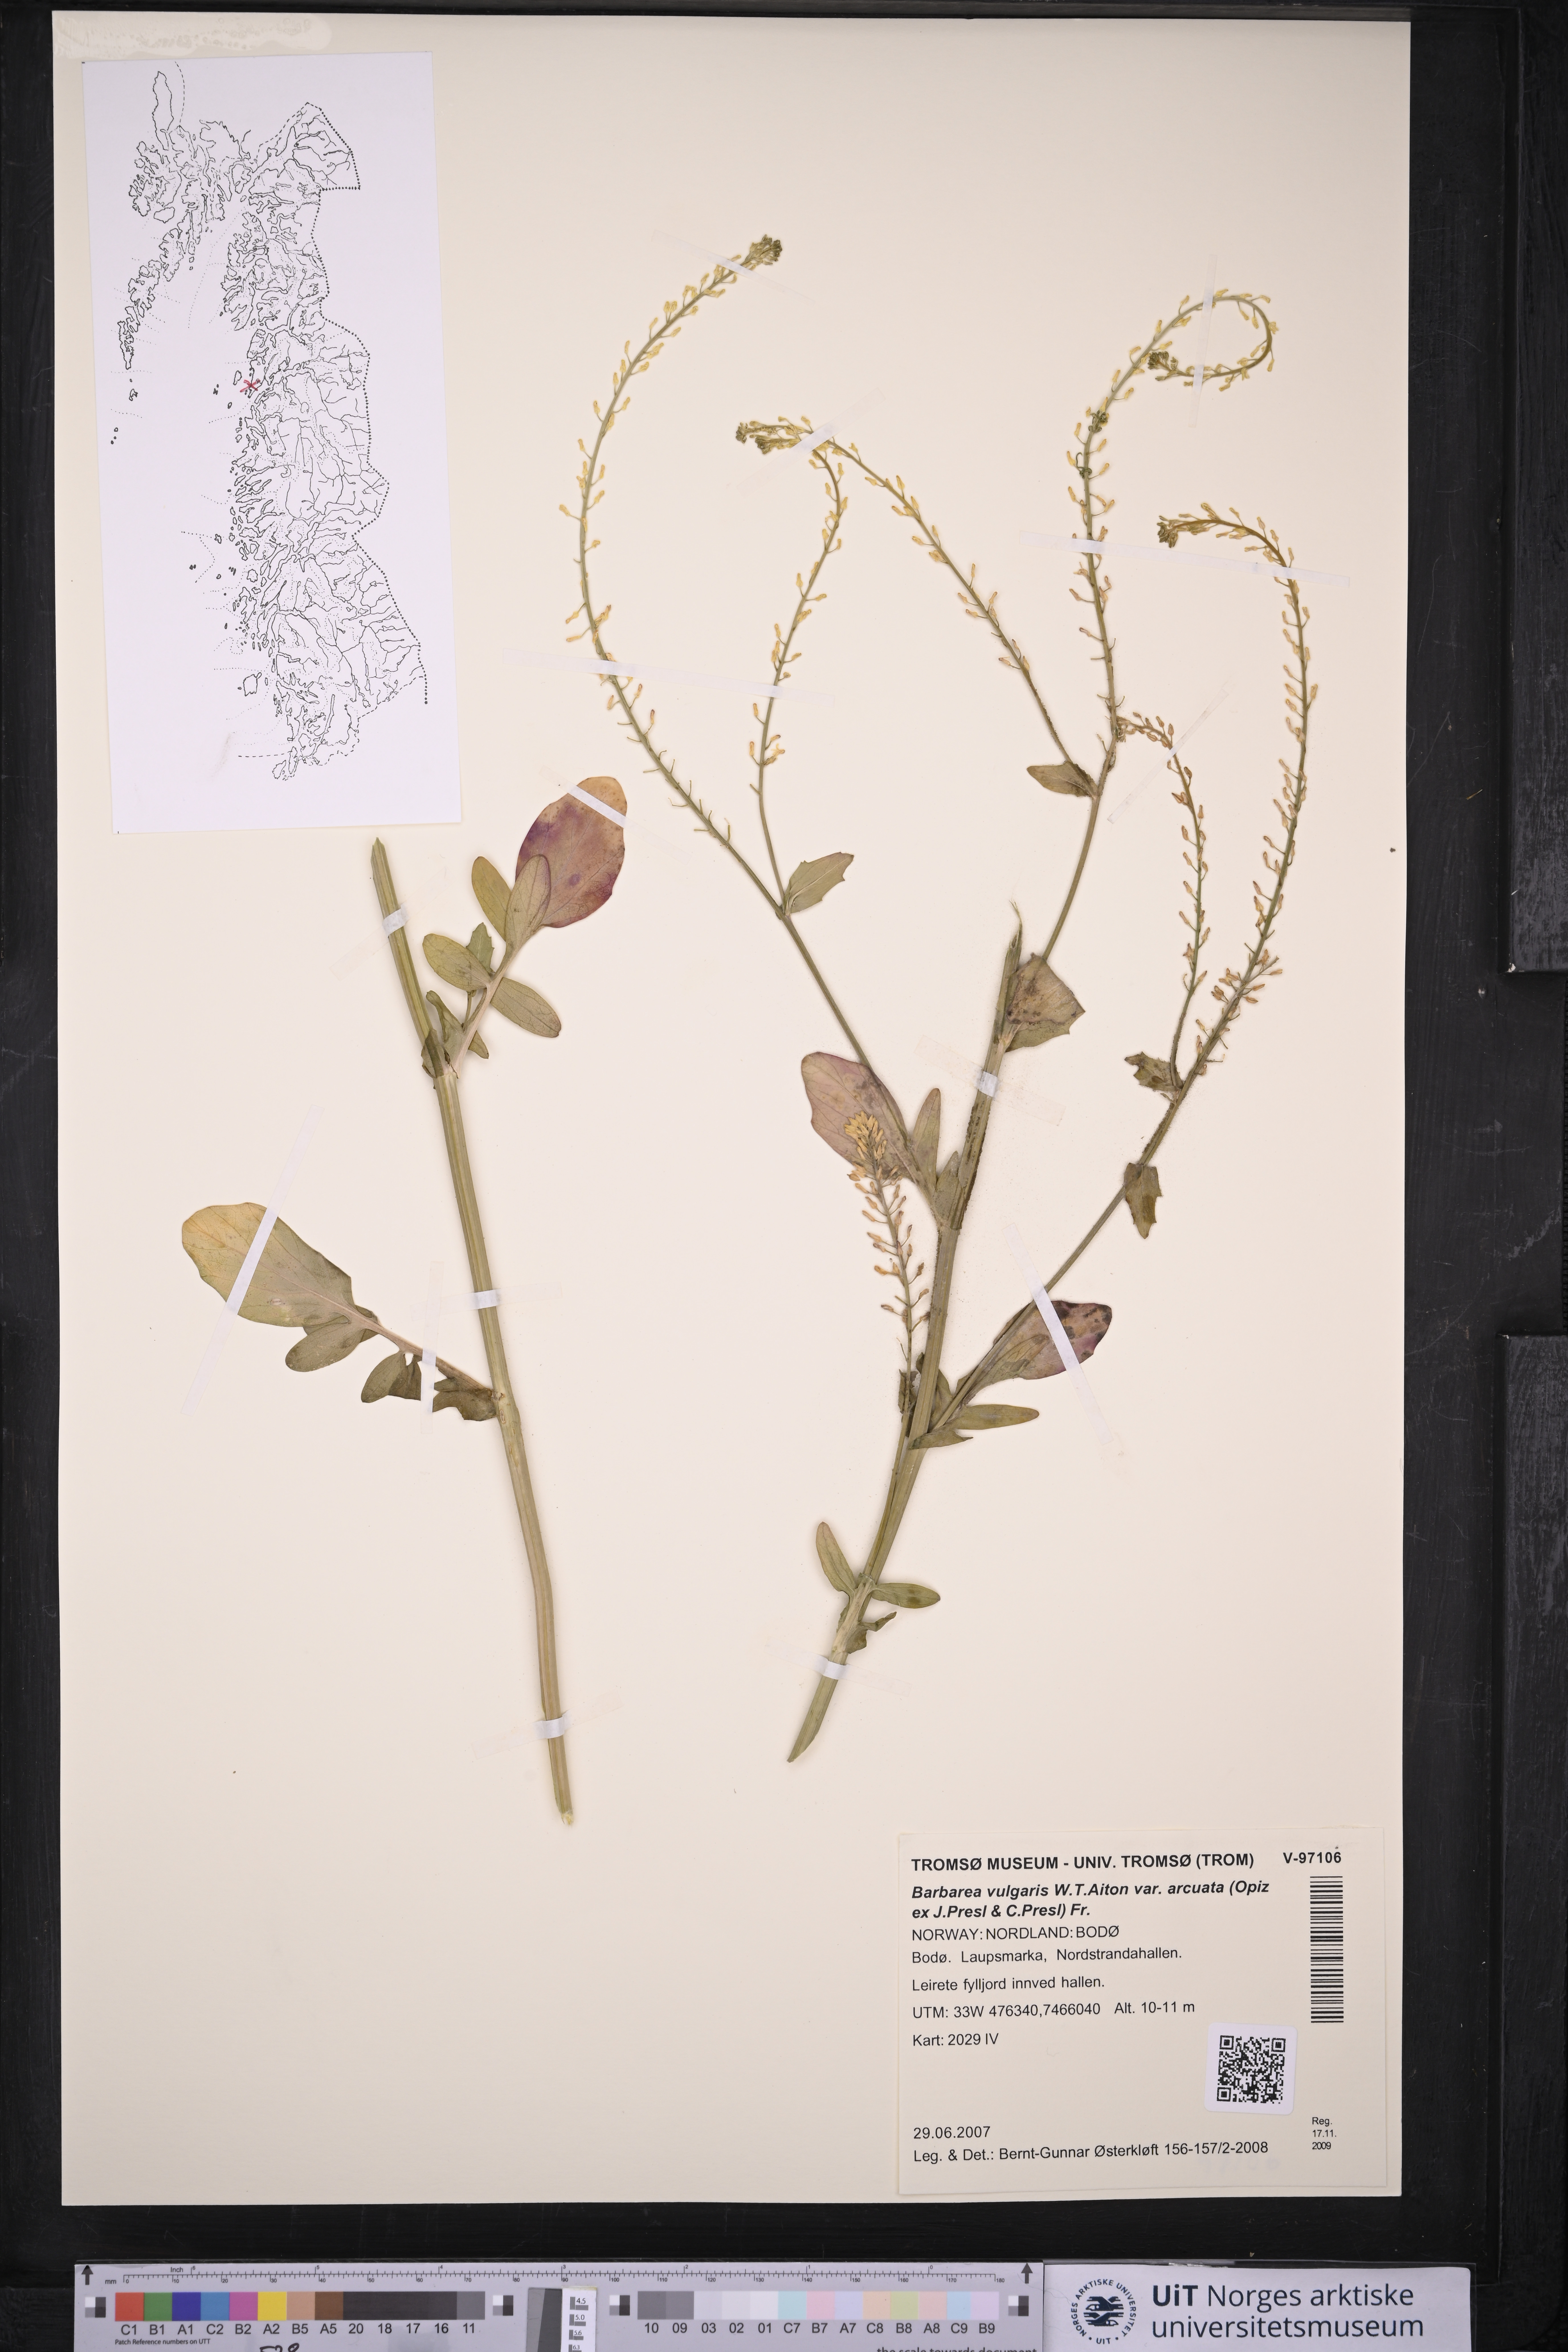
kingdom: Plantae
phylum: Tracheophyta
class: Magnoliopsida
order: Brassicales
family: Brassicaceae
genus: Barbarea
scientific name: Barbarea vulgaris
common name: Cressy-greens
